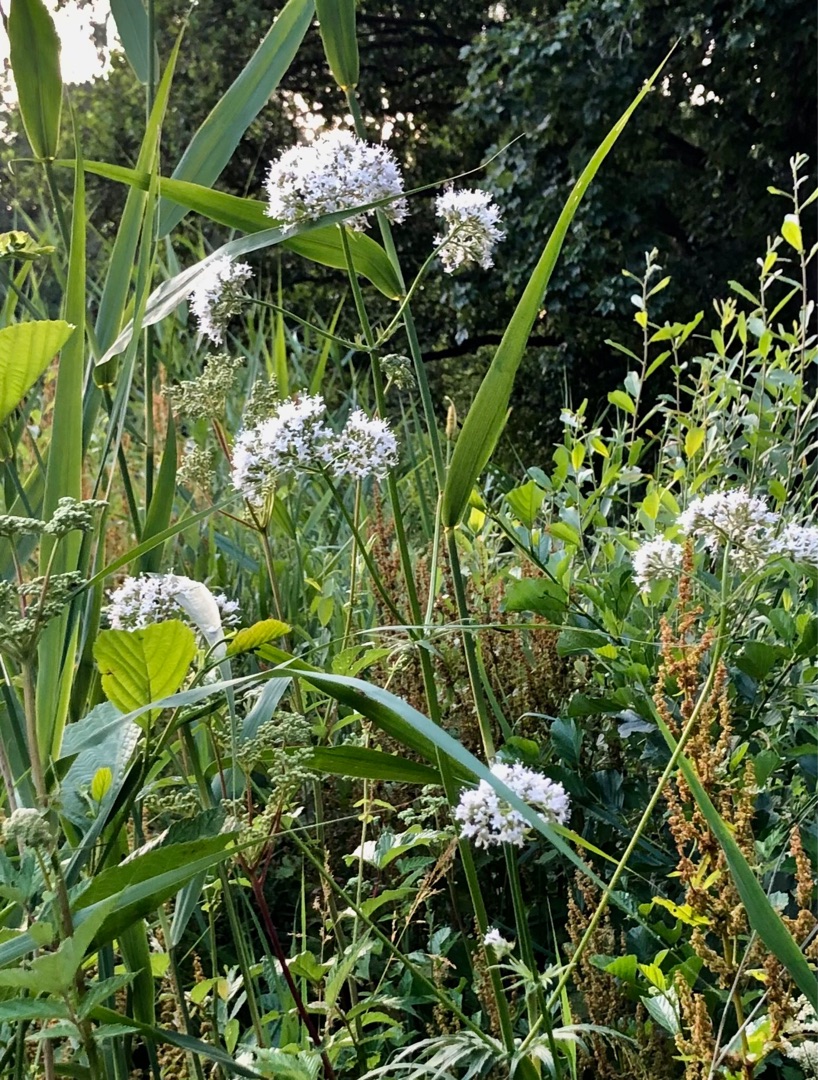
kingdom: Plantae
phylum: Tracheophyta
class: Magnoliopsida
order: Dipsacales
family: Caprifoliaceae
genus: Valeriana
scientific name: Valeriana
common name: Baldrianslægten
